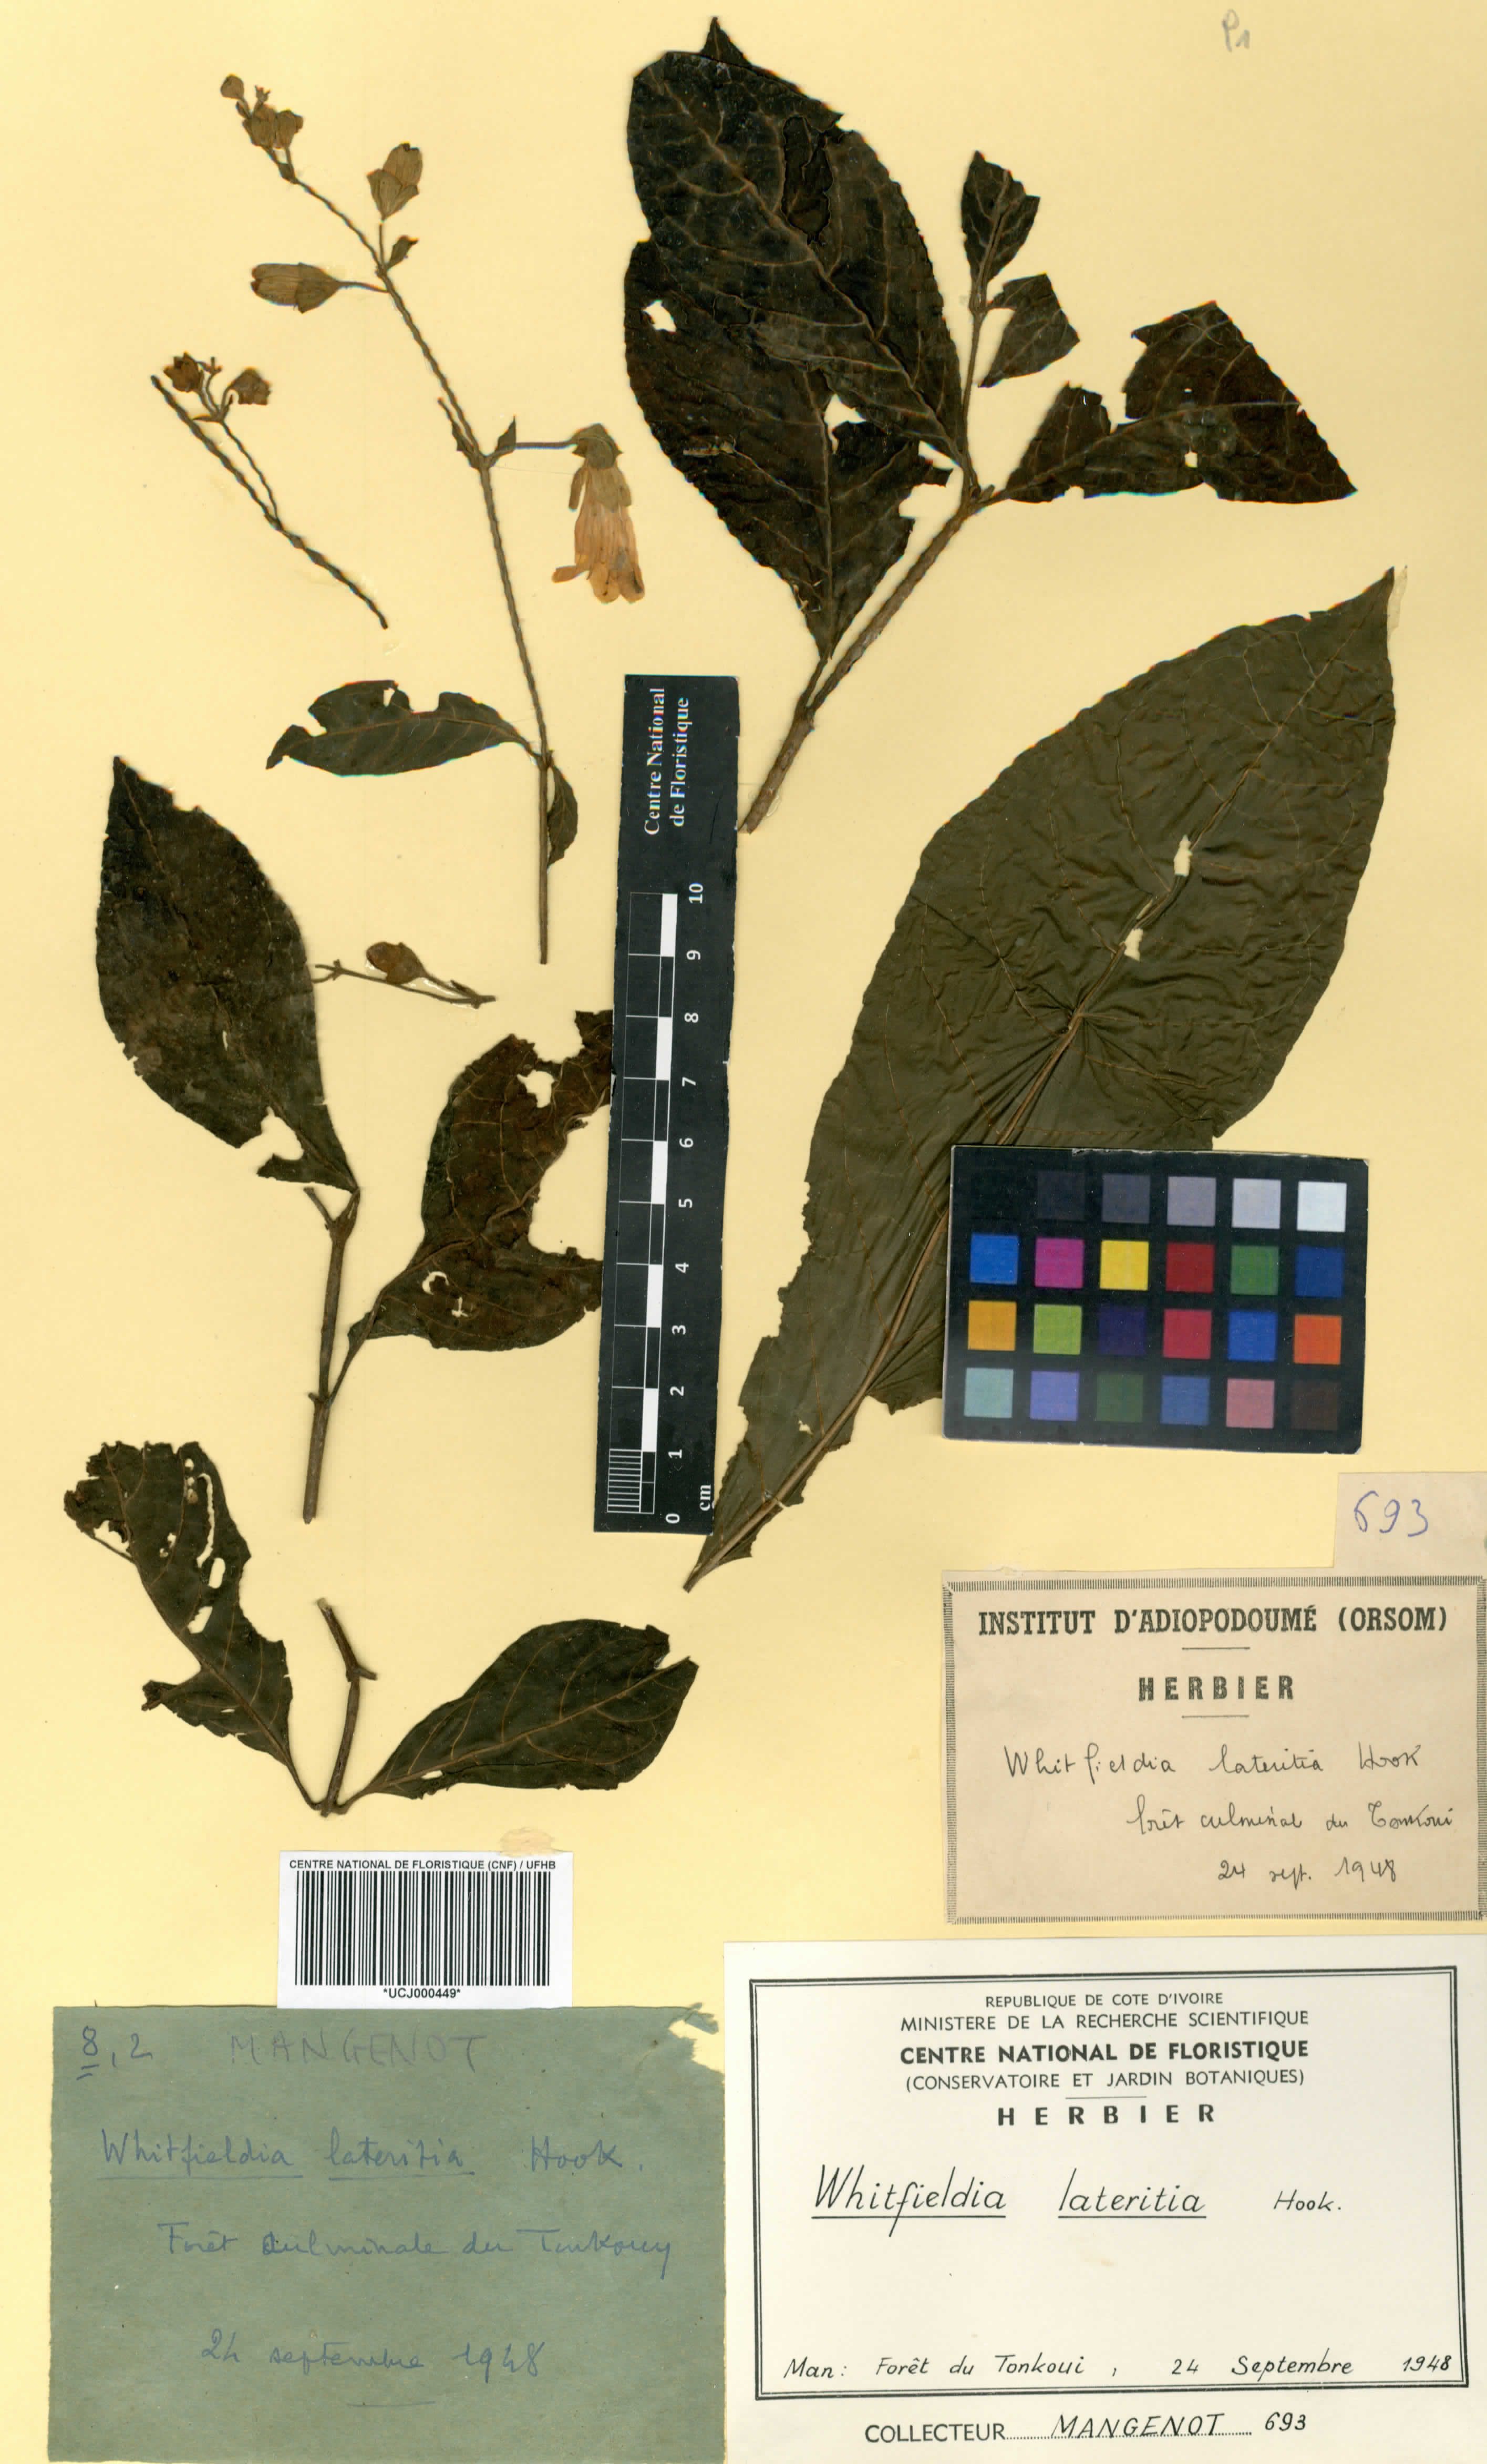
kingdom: Plantae
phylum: Tracheophyta
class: Magnoliopsida
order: Lamiales
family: Acanthaceae
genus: Whitfieldia
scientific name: Whitfieldia lateritia
